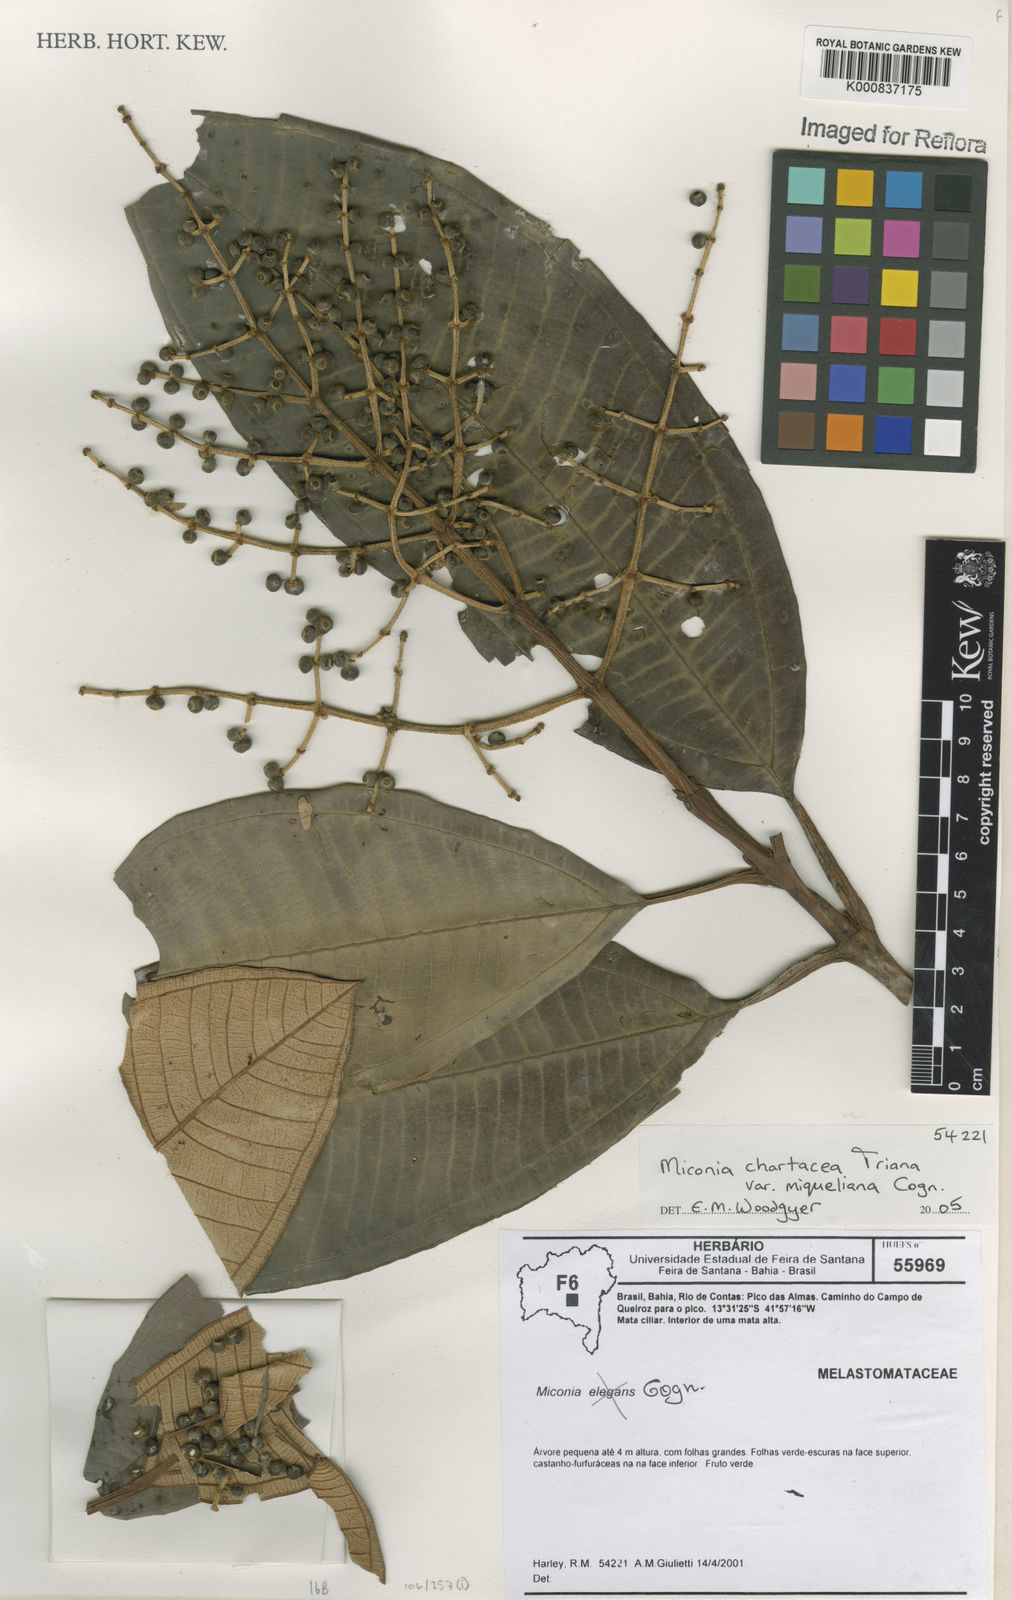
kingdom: Plantae
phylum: Tracheophyta
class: Magnoliopsida
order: Myrtales
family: Melastomataceae
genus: Miconia
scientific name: Miconia chartacea
